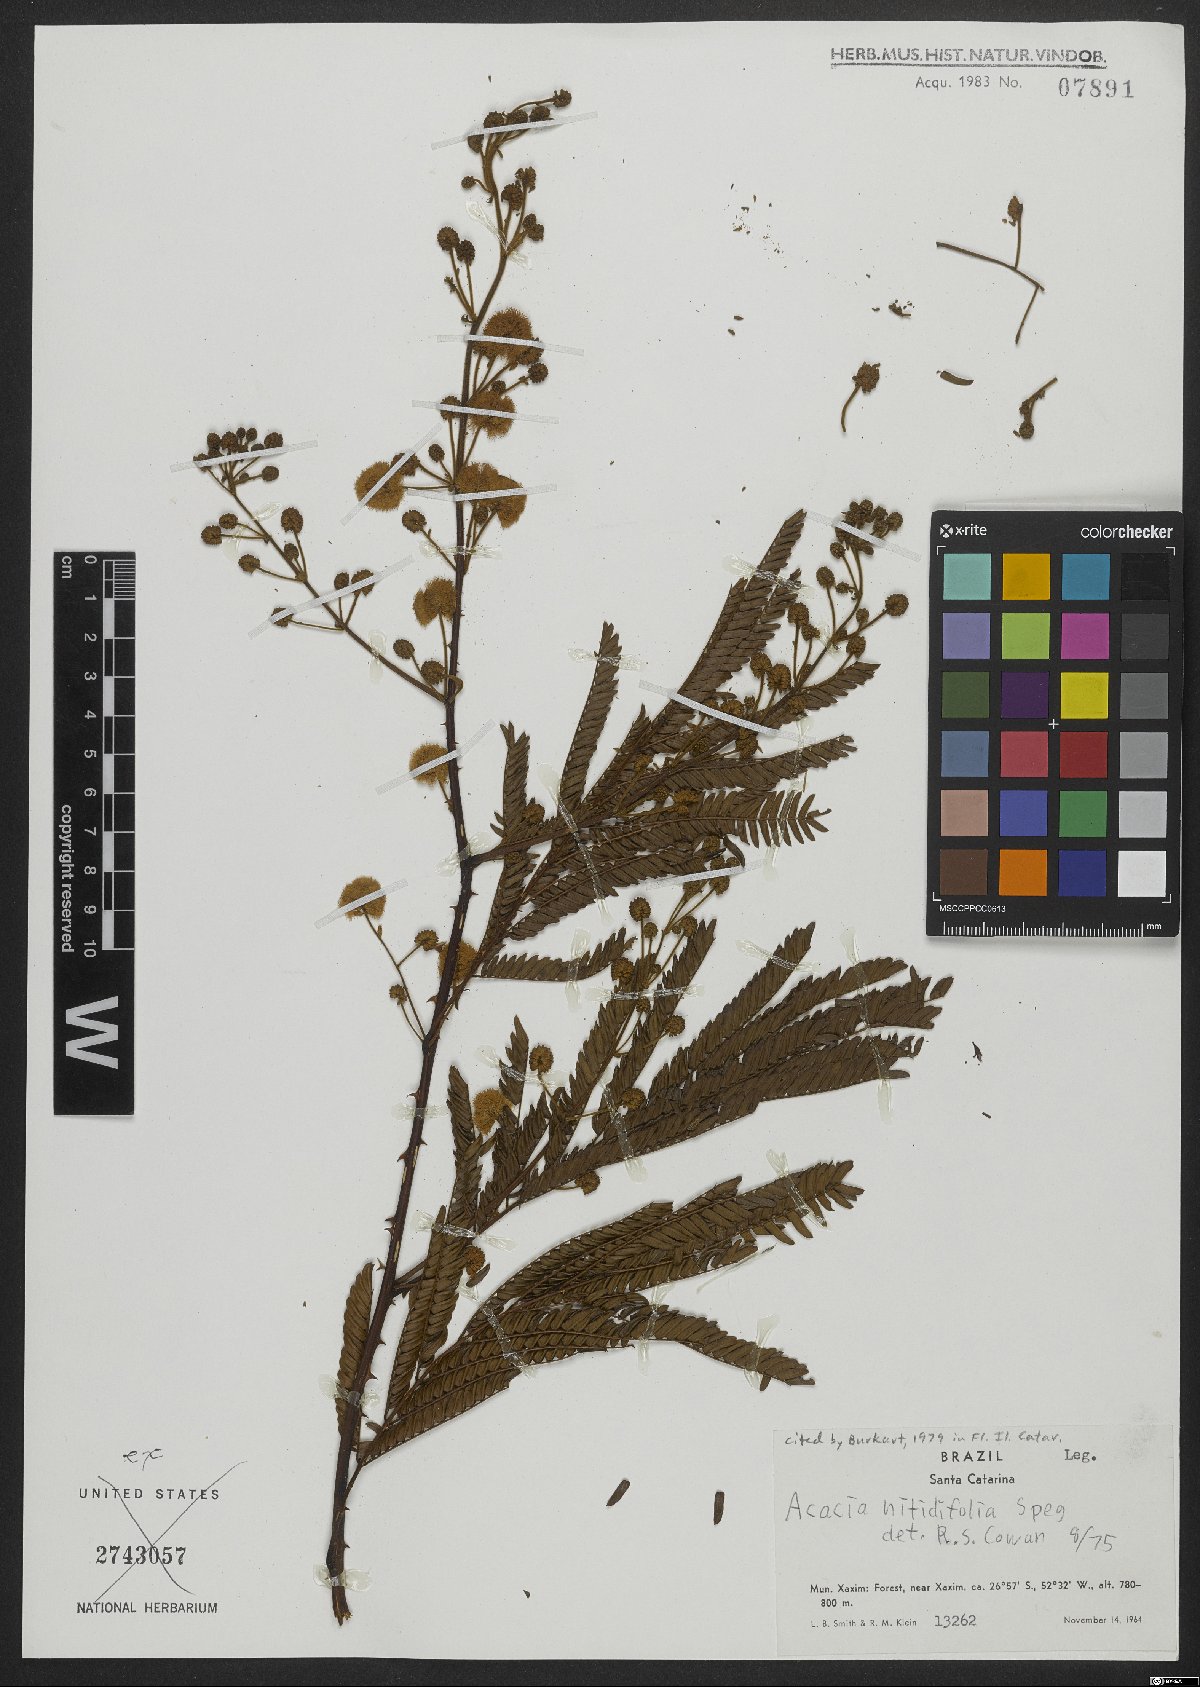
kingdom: Plantae
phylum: Tracheophyta
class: Magnoliopsida
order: Fabales
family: Fabaceae
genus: Senegalia
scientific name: Senegalia nitidifolia
